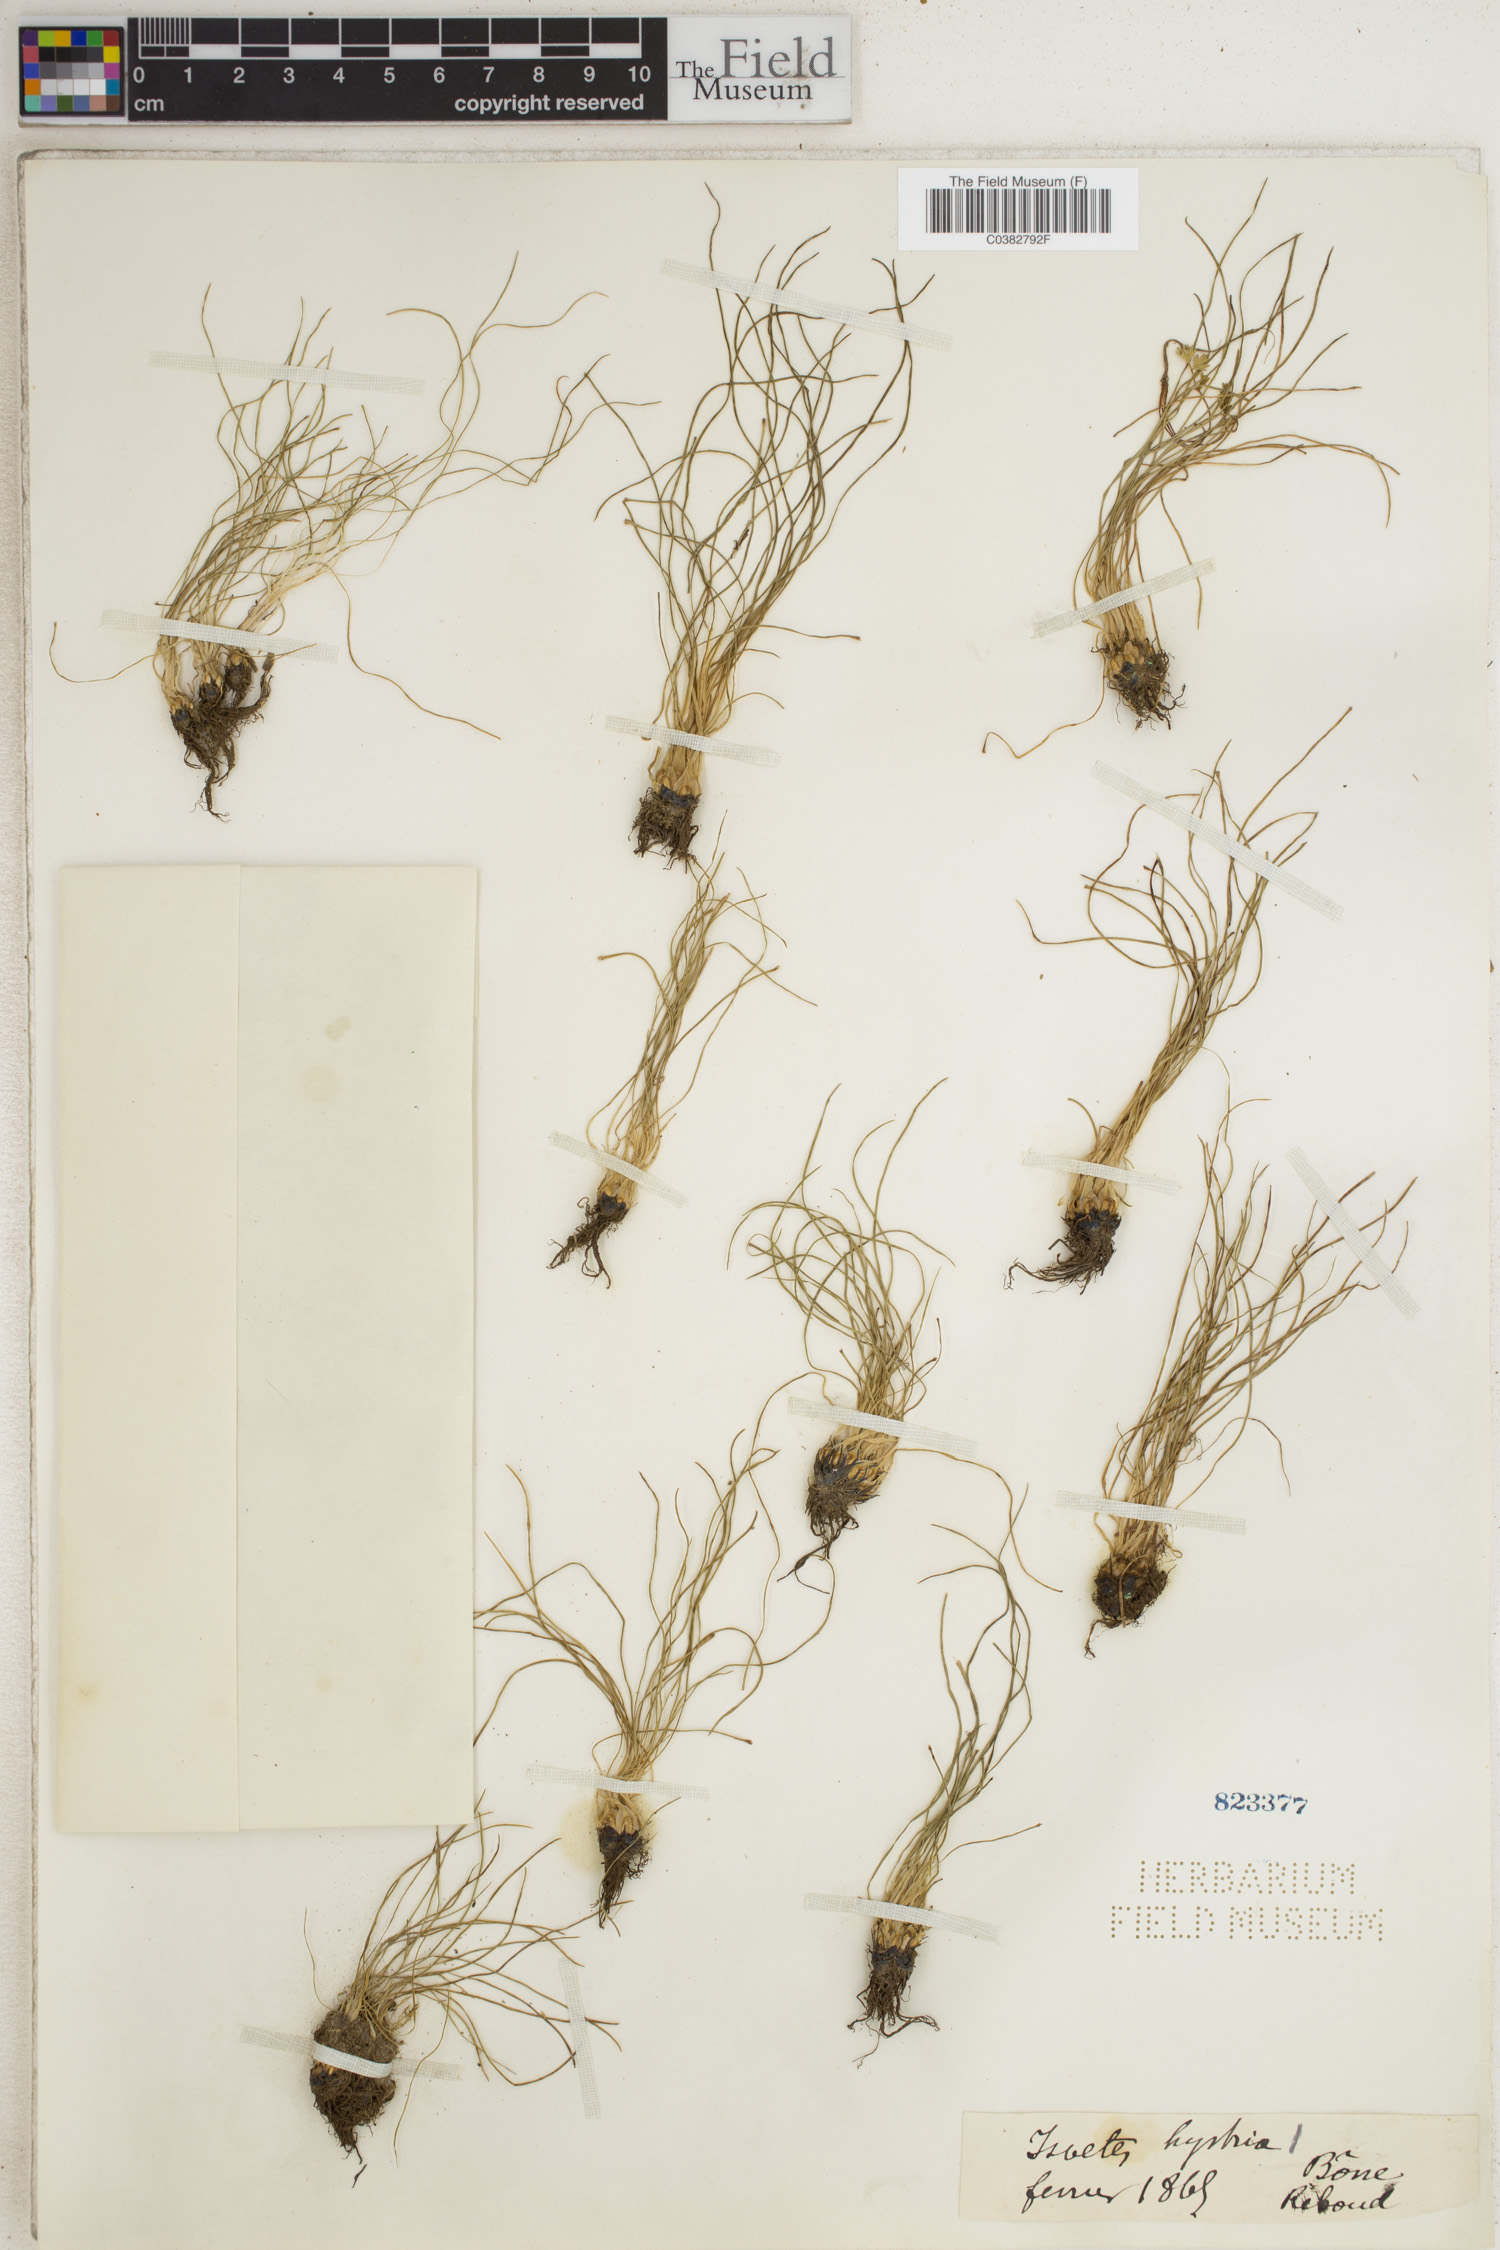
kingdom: Plantae
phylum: Tracheophyta
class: Lycopodiopsida
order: Isoetales
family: Isoetaceae
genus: Isoetes
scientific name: Isoetes
